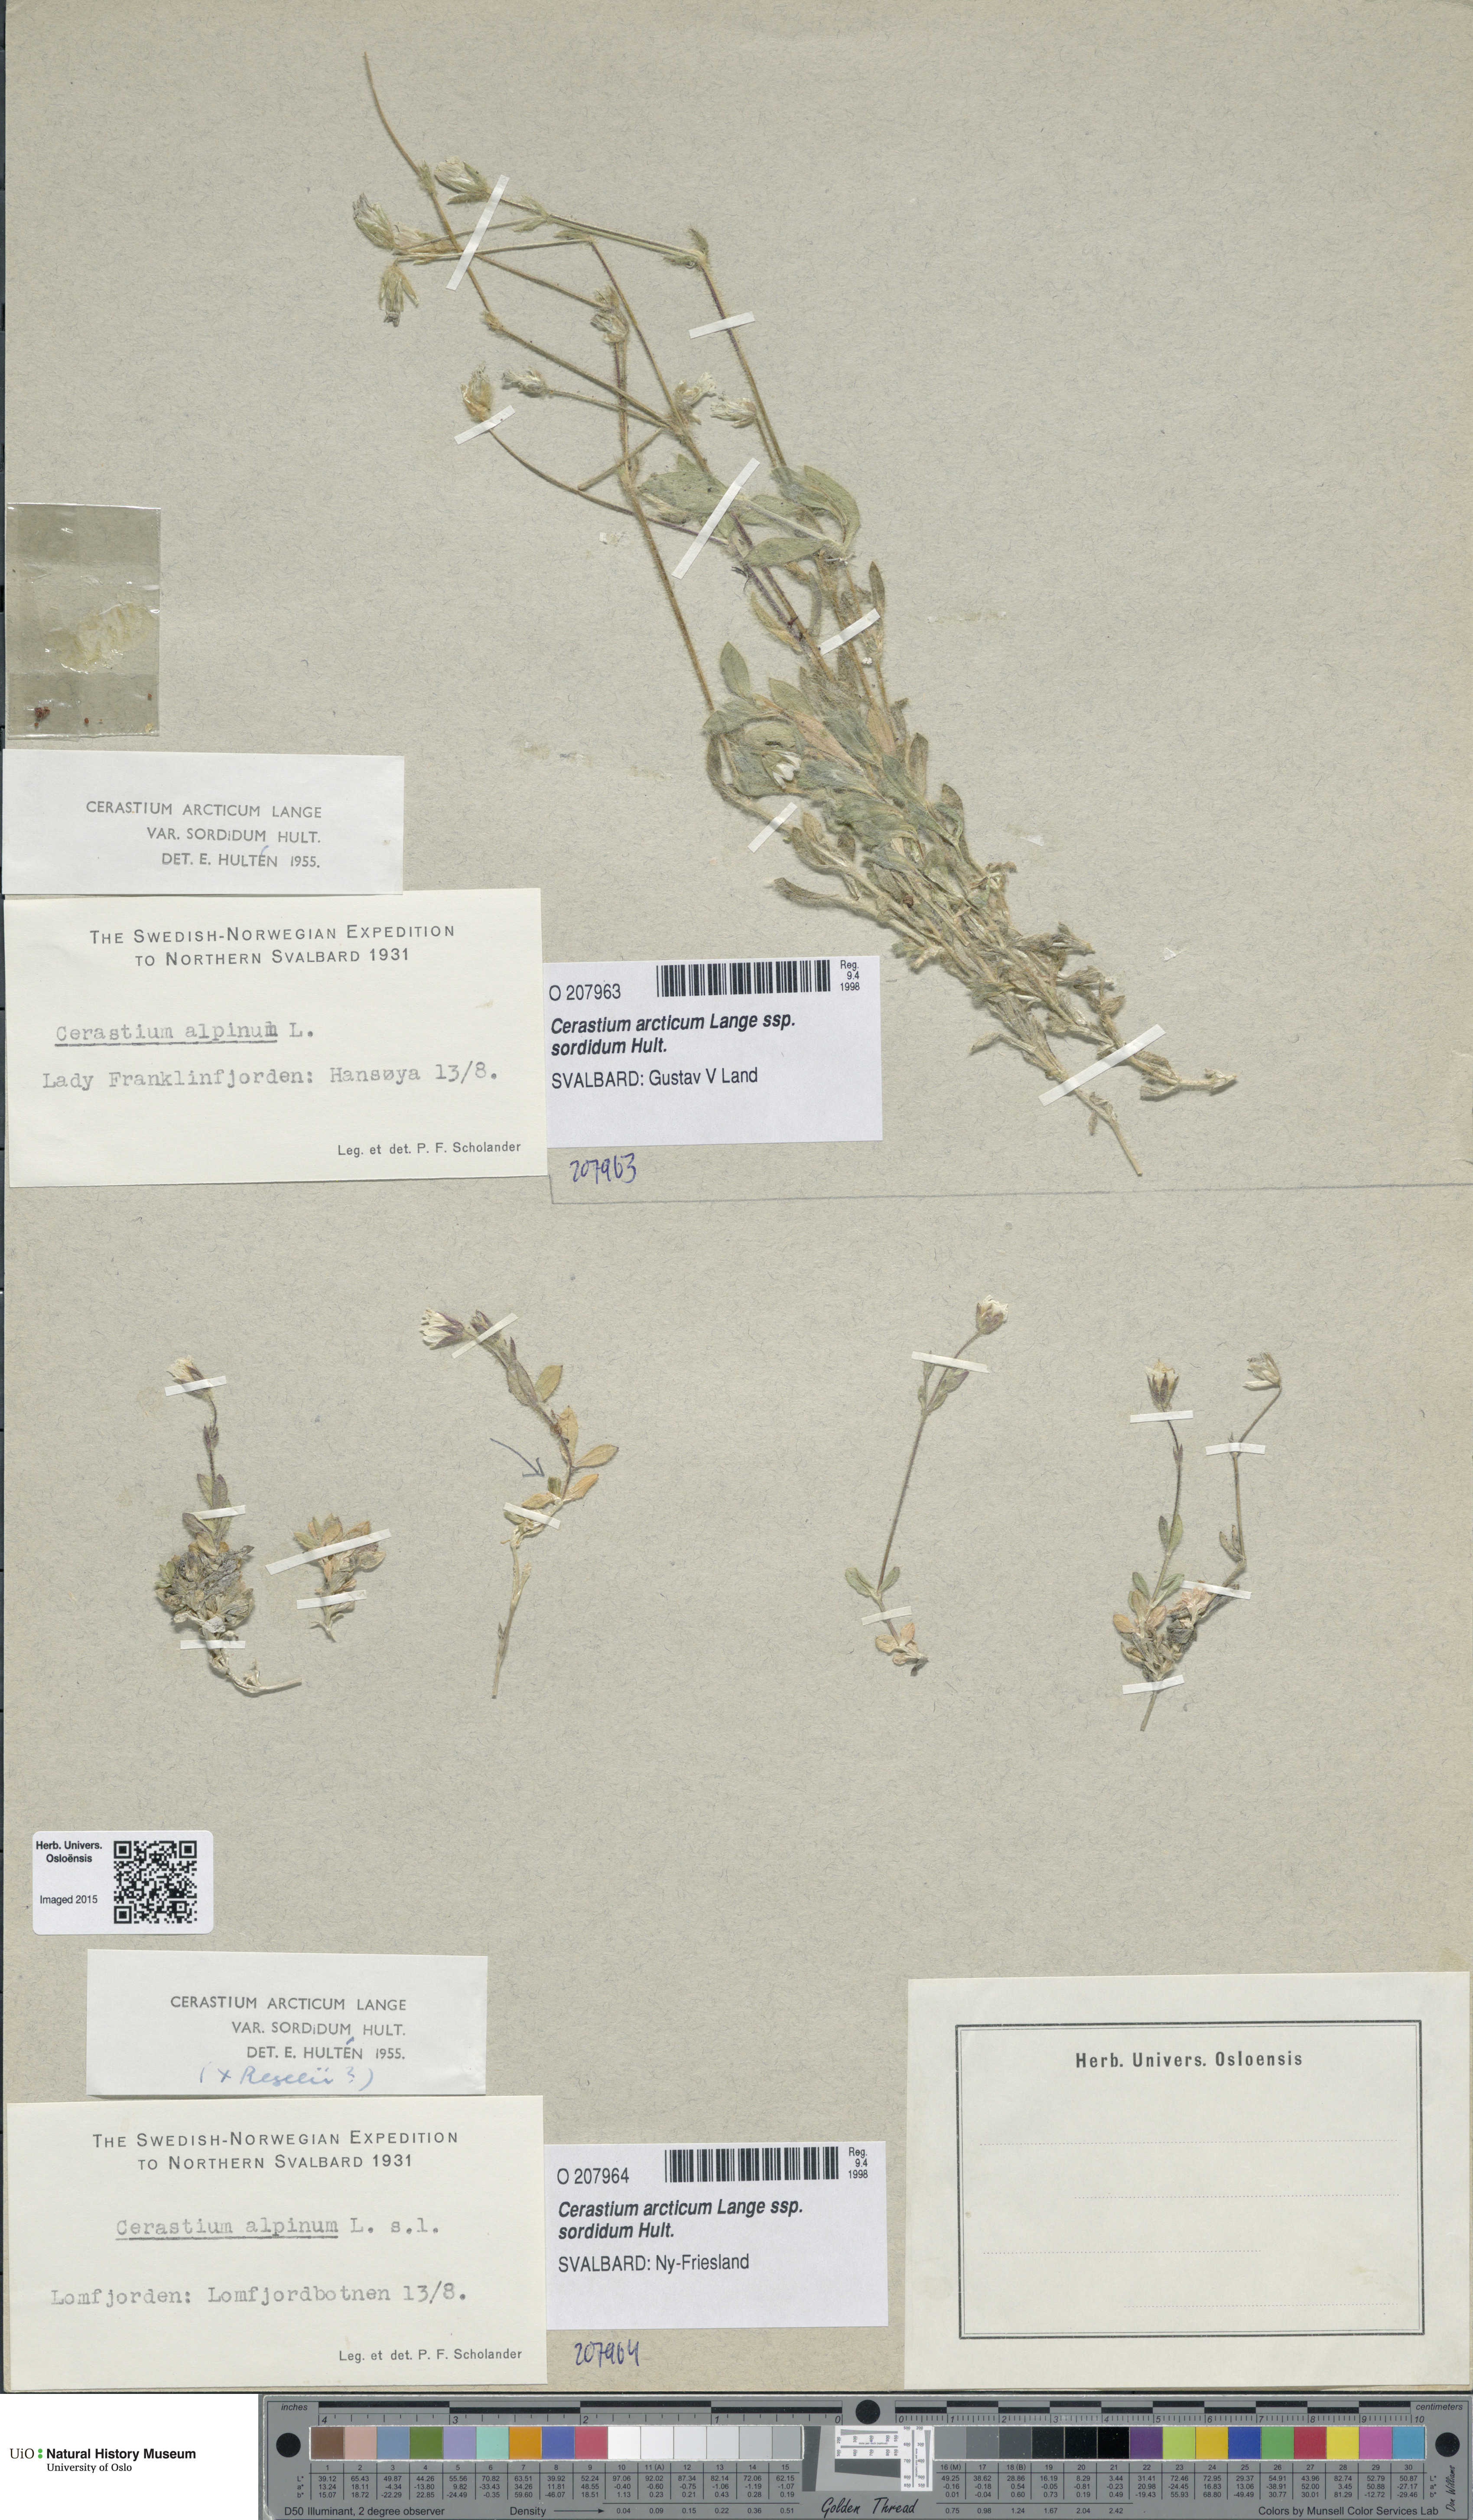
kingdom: Plantae
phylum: Tracheophyta
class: Magnoliopsida
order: Caryophyllales
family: Caryophyllaceae
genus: Cerastium
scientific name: Cerastium sordidum
